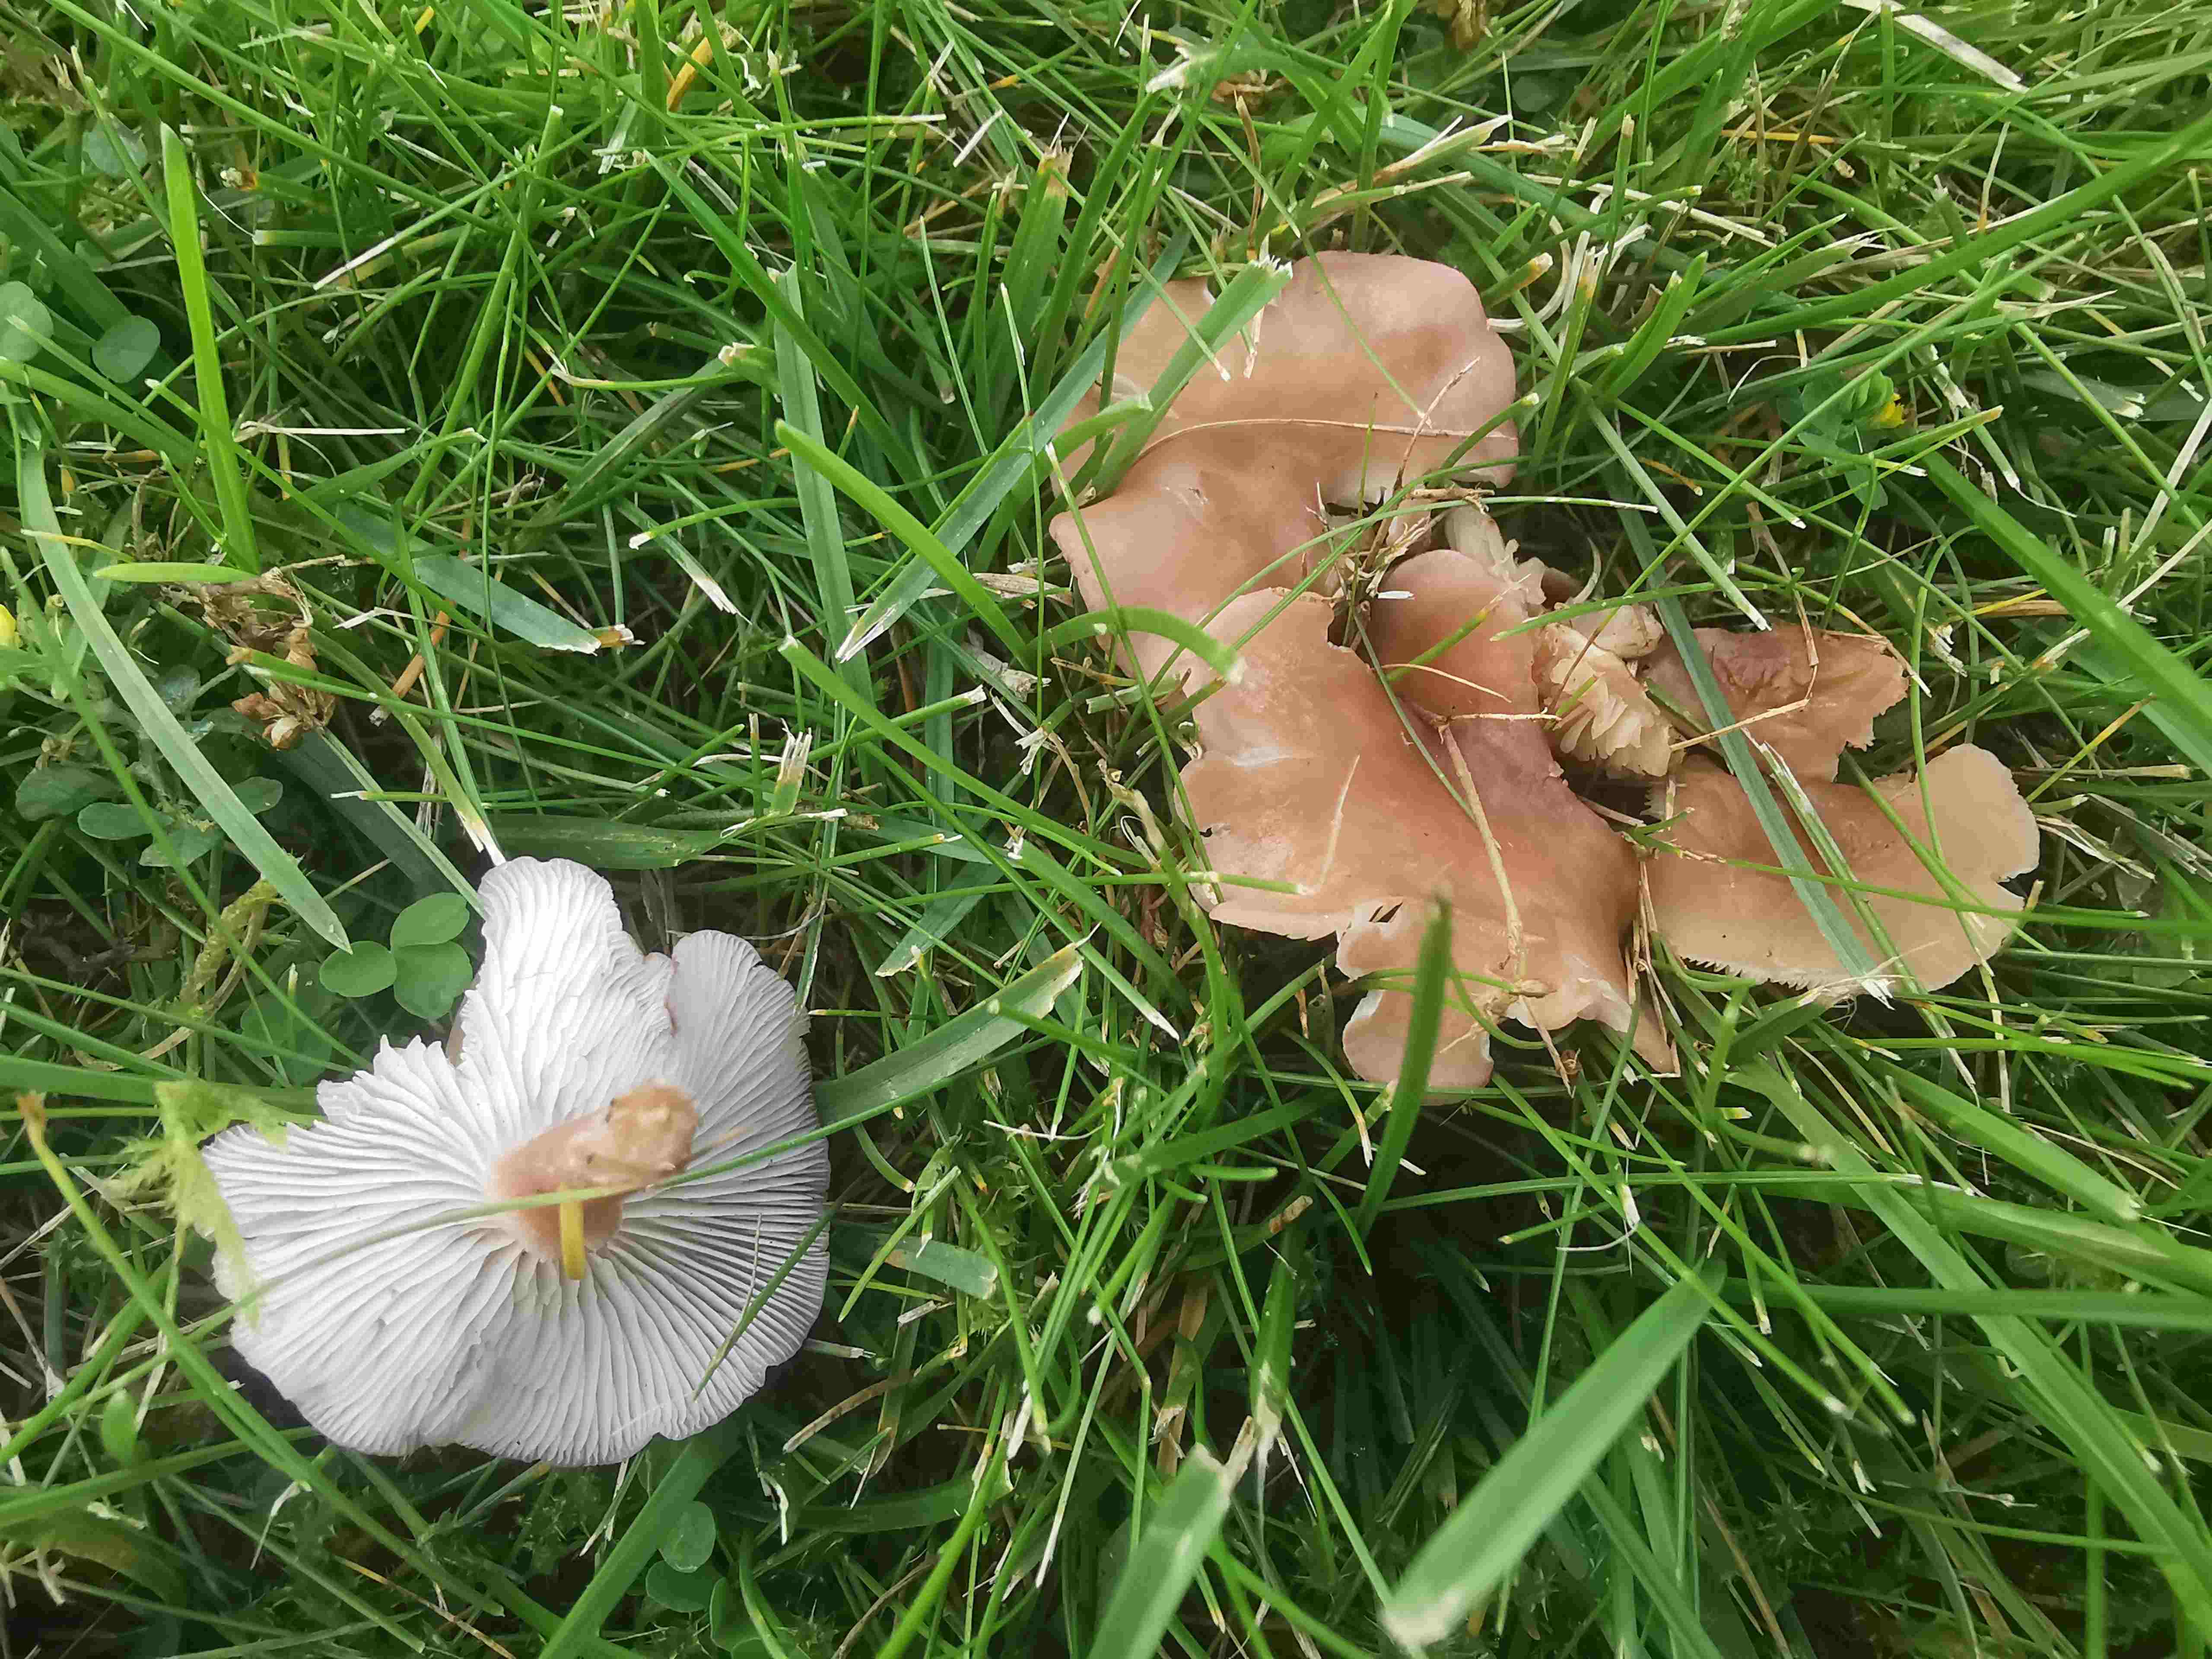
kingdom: Fungi
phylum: Basidiomycota
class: Agaricomycetes
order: Agaricales
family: Lyophyllaceae
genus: Calocybe
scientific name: Calocybe carnea
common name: rosa fagerhat
